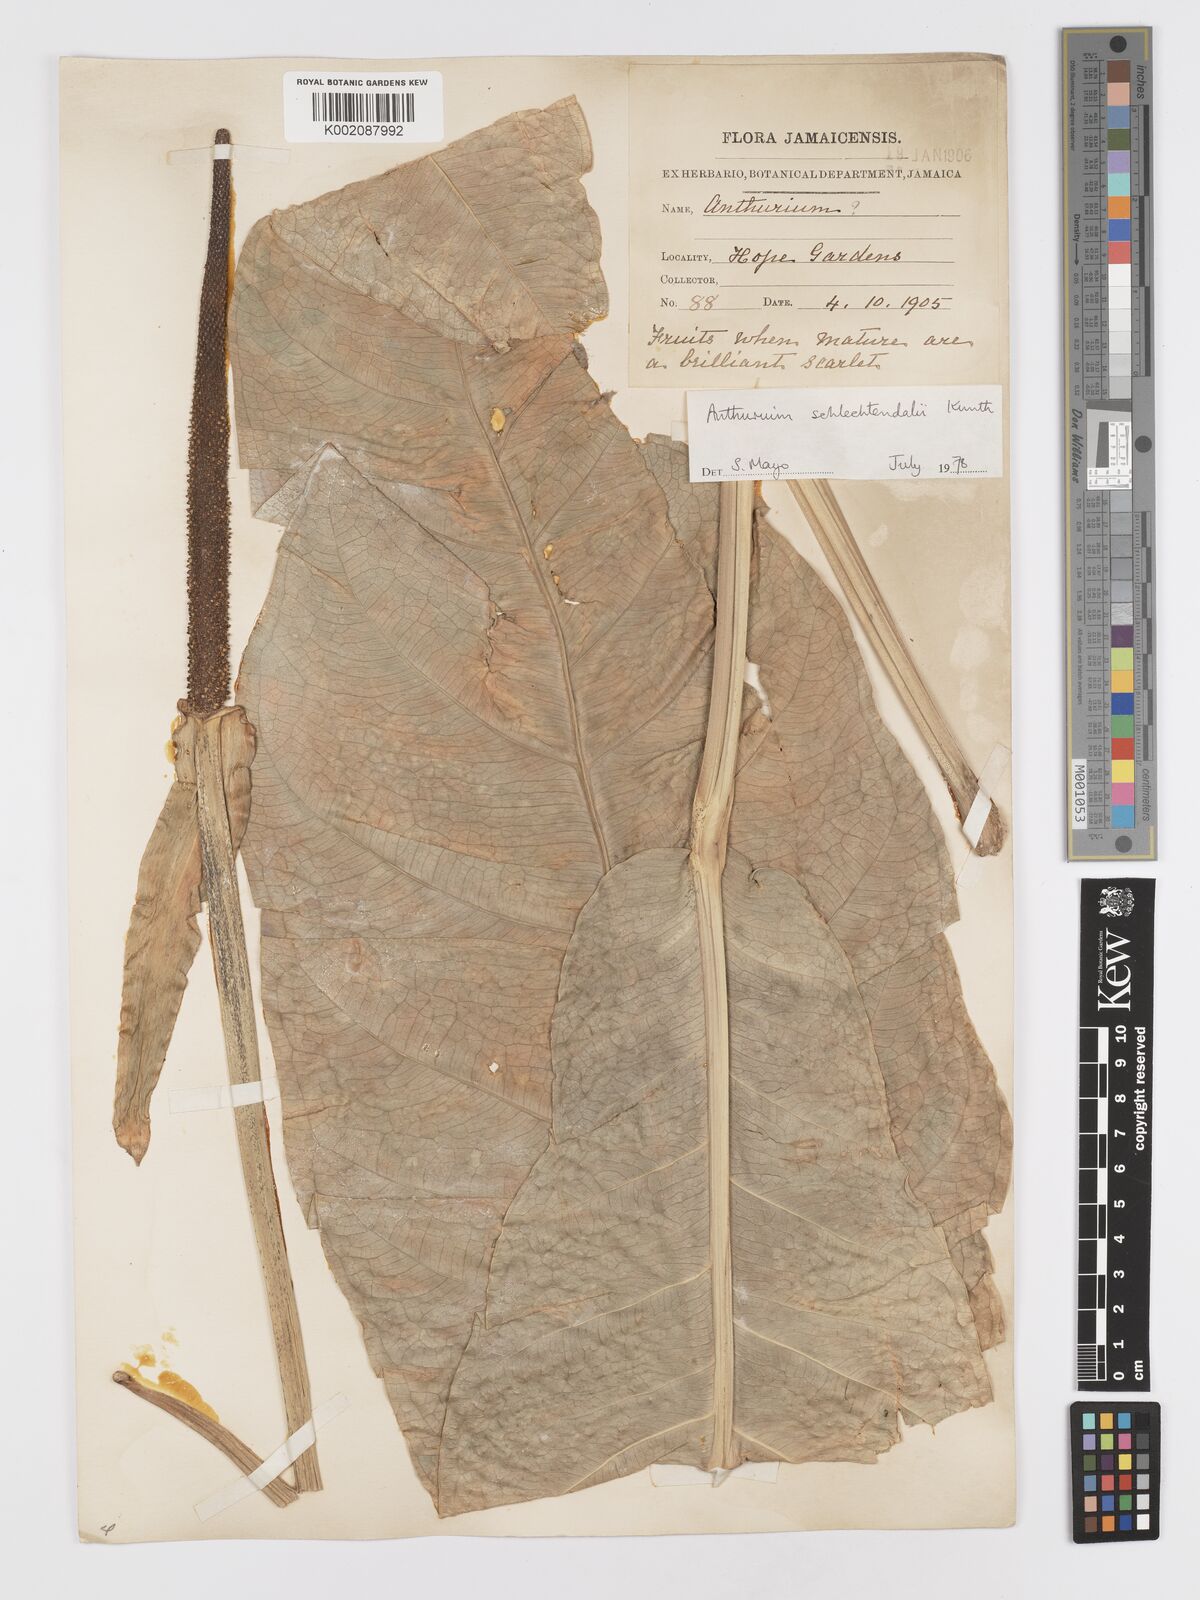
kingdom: Plantae
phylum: Tracheophyta
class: Liliopsida
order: Alismatales
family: Araceae
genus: Anthurium
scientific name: Anthurium schlechtendalii
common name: Laceleaf
